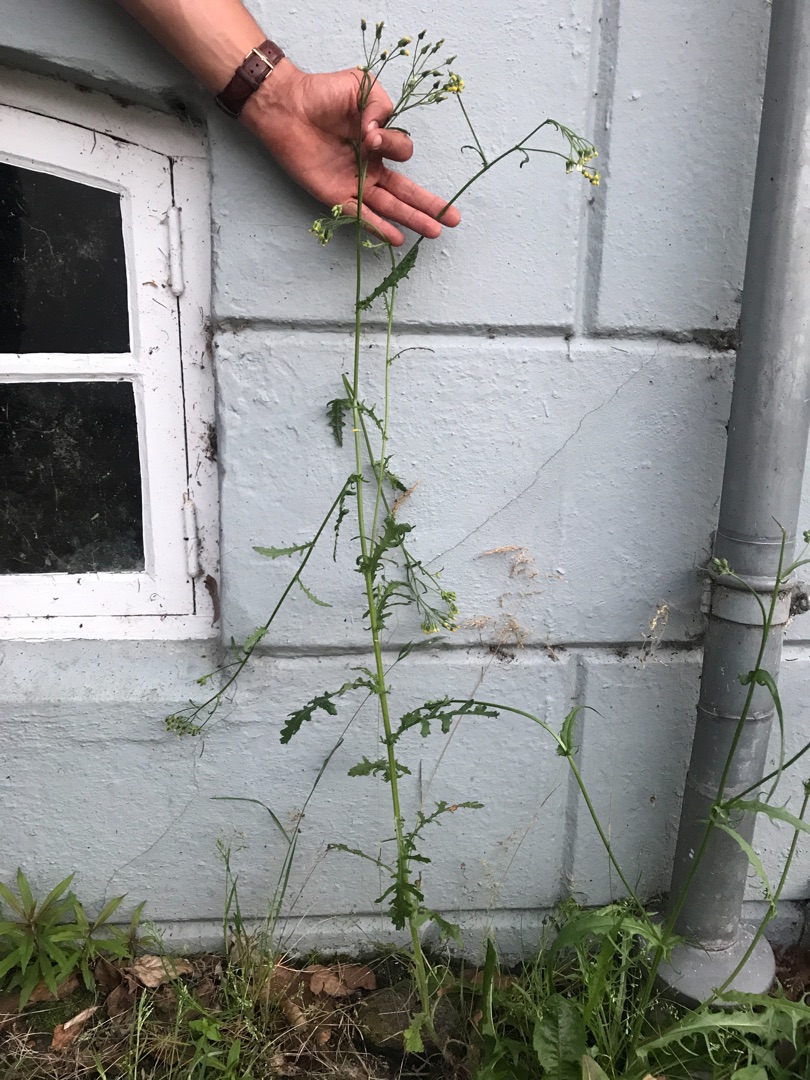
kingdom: Plantae
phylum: Tracheophyta
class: Magnoliopsida
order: Asterales
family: Asteraceae
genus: Senecio
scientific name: Senecio sylvaticus
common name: Skov-brandbæger
